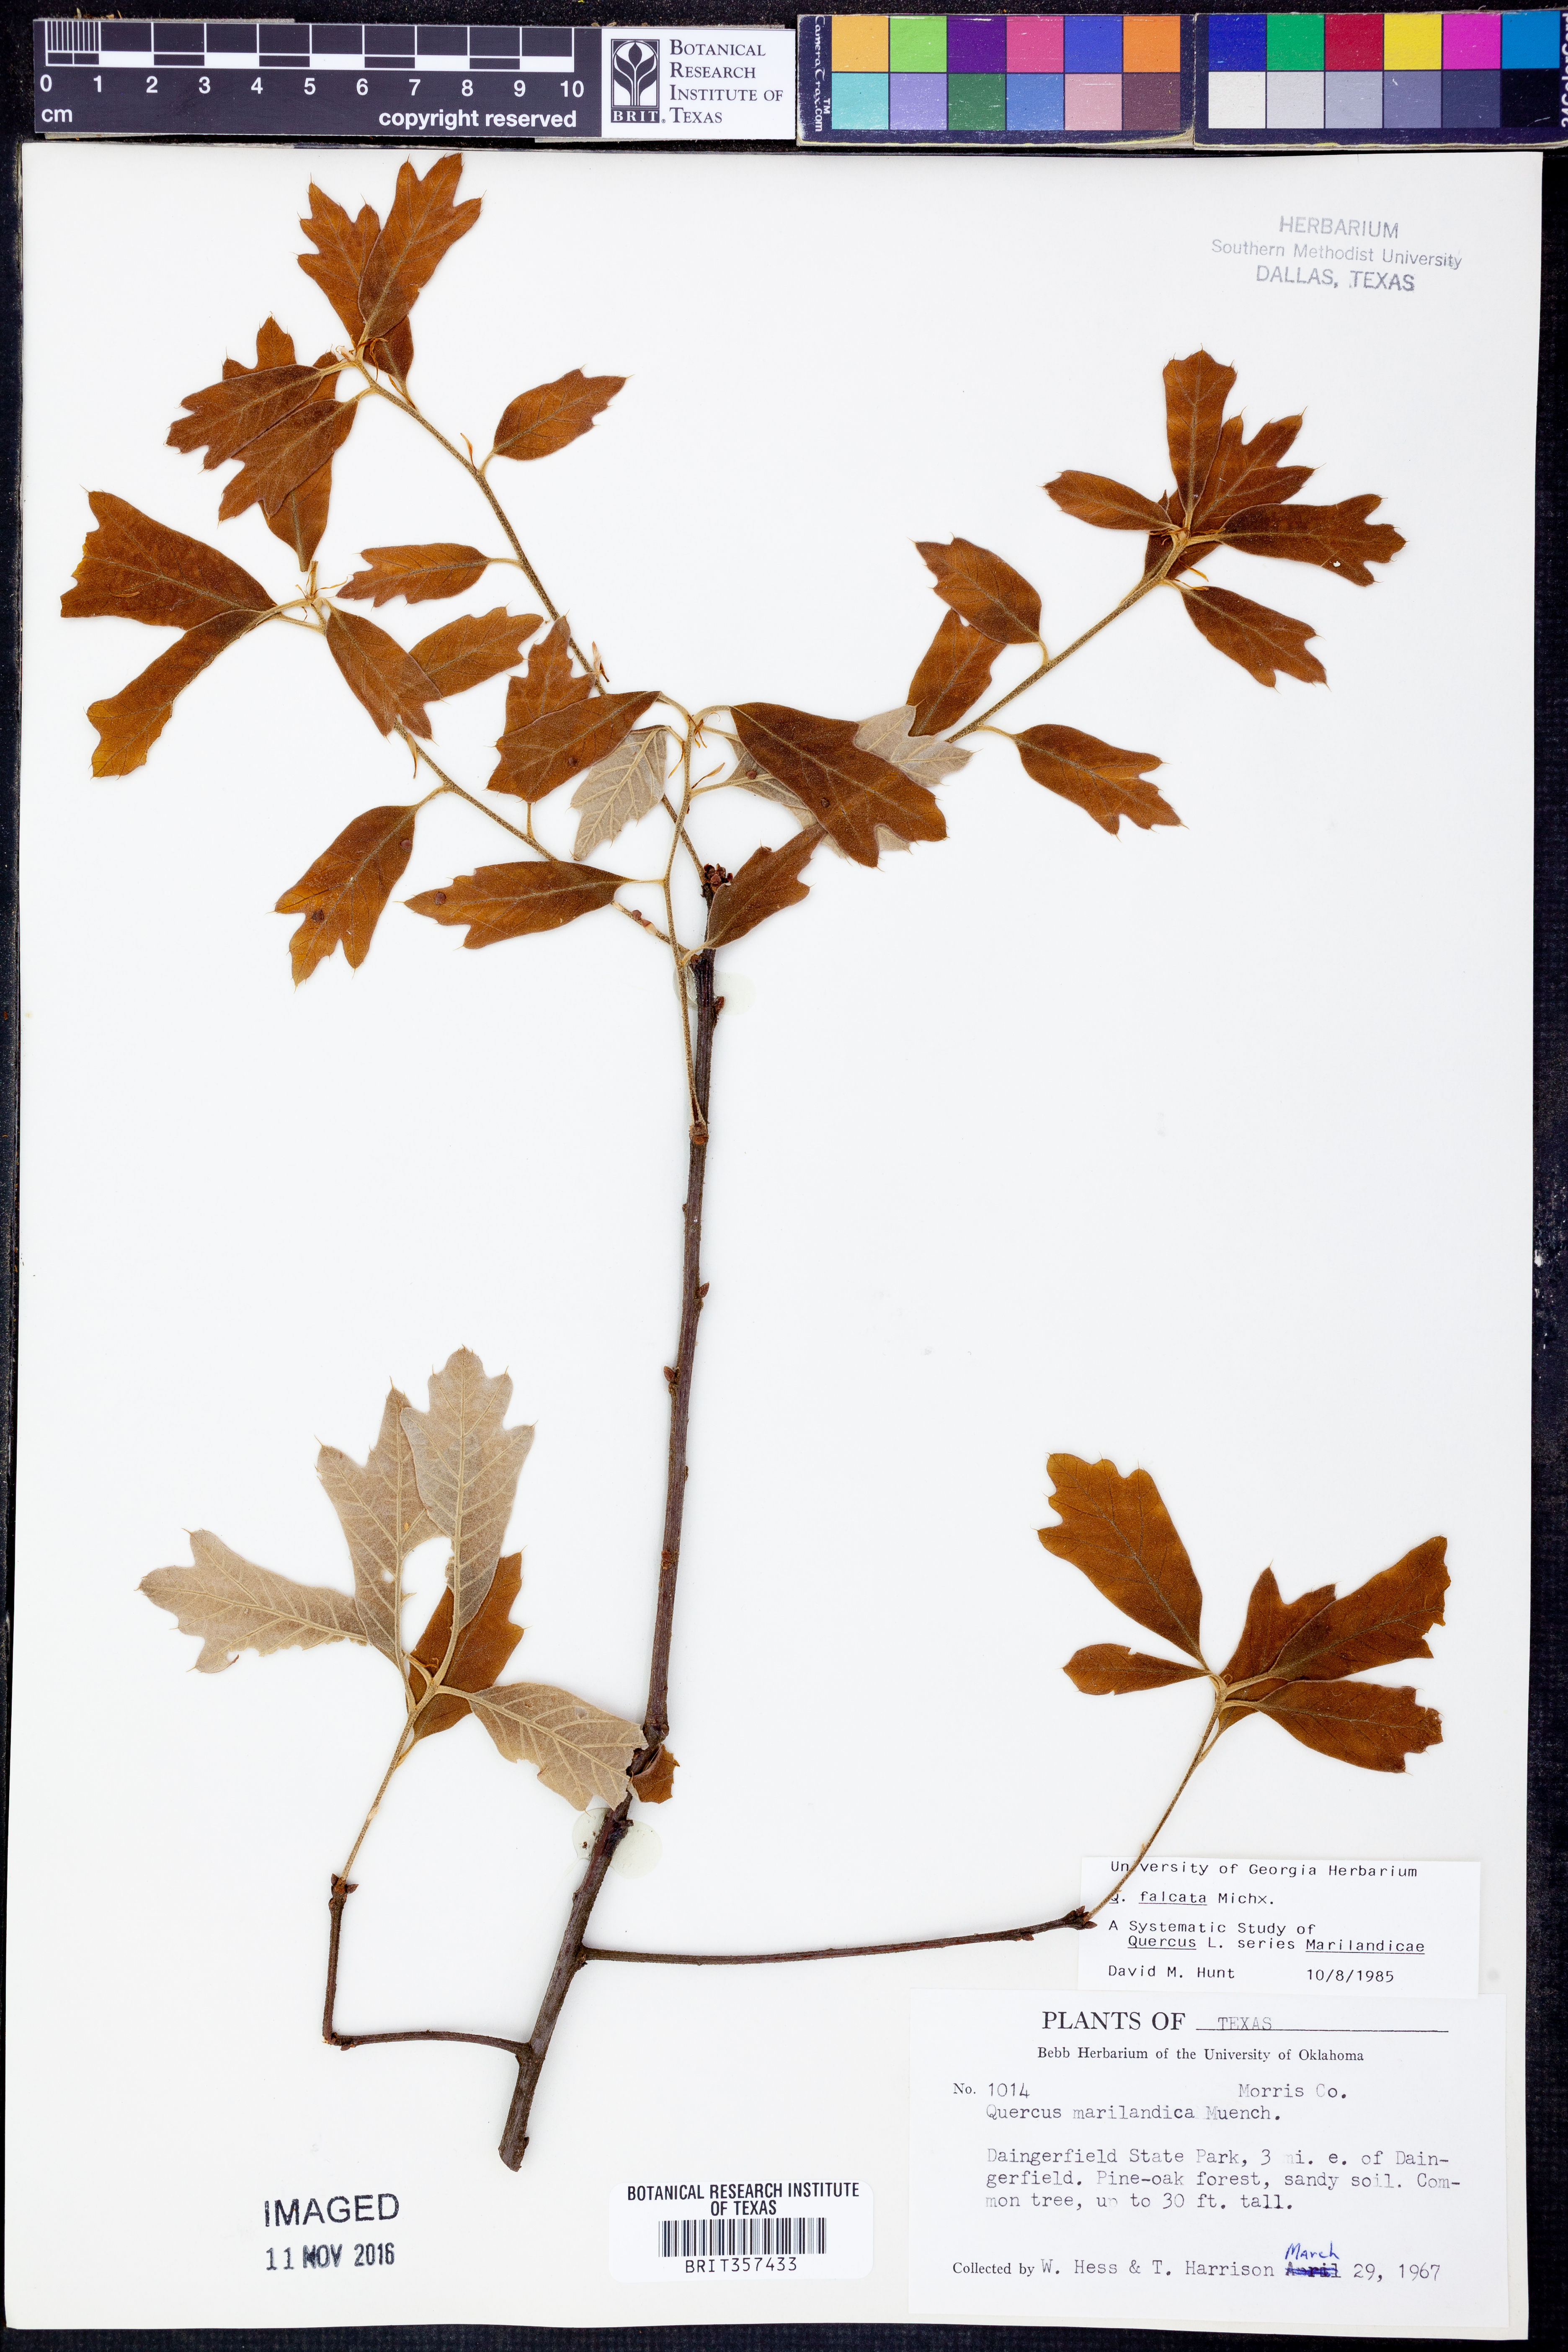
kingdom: Plantae
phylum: Tracheophyta
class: Magnoliopsida
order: Fagales
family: Fagaceae
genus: Quercus
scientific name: Quercus falcata
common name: Southern red oak
